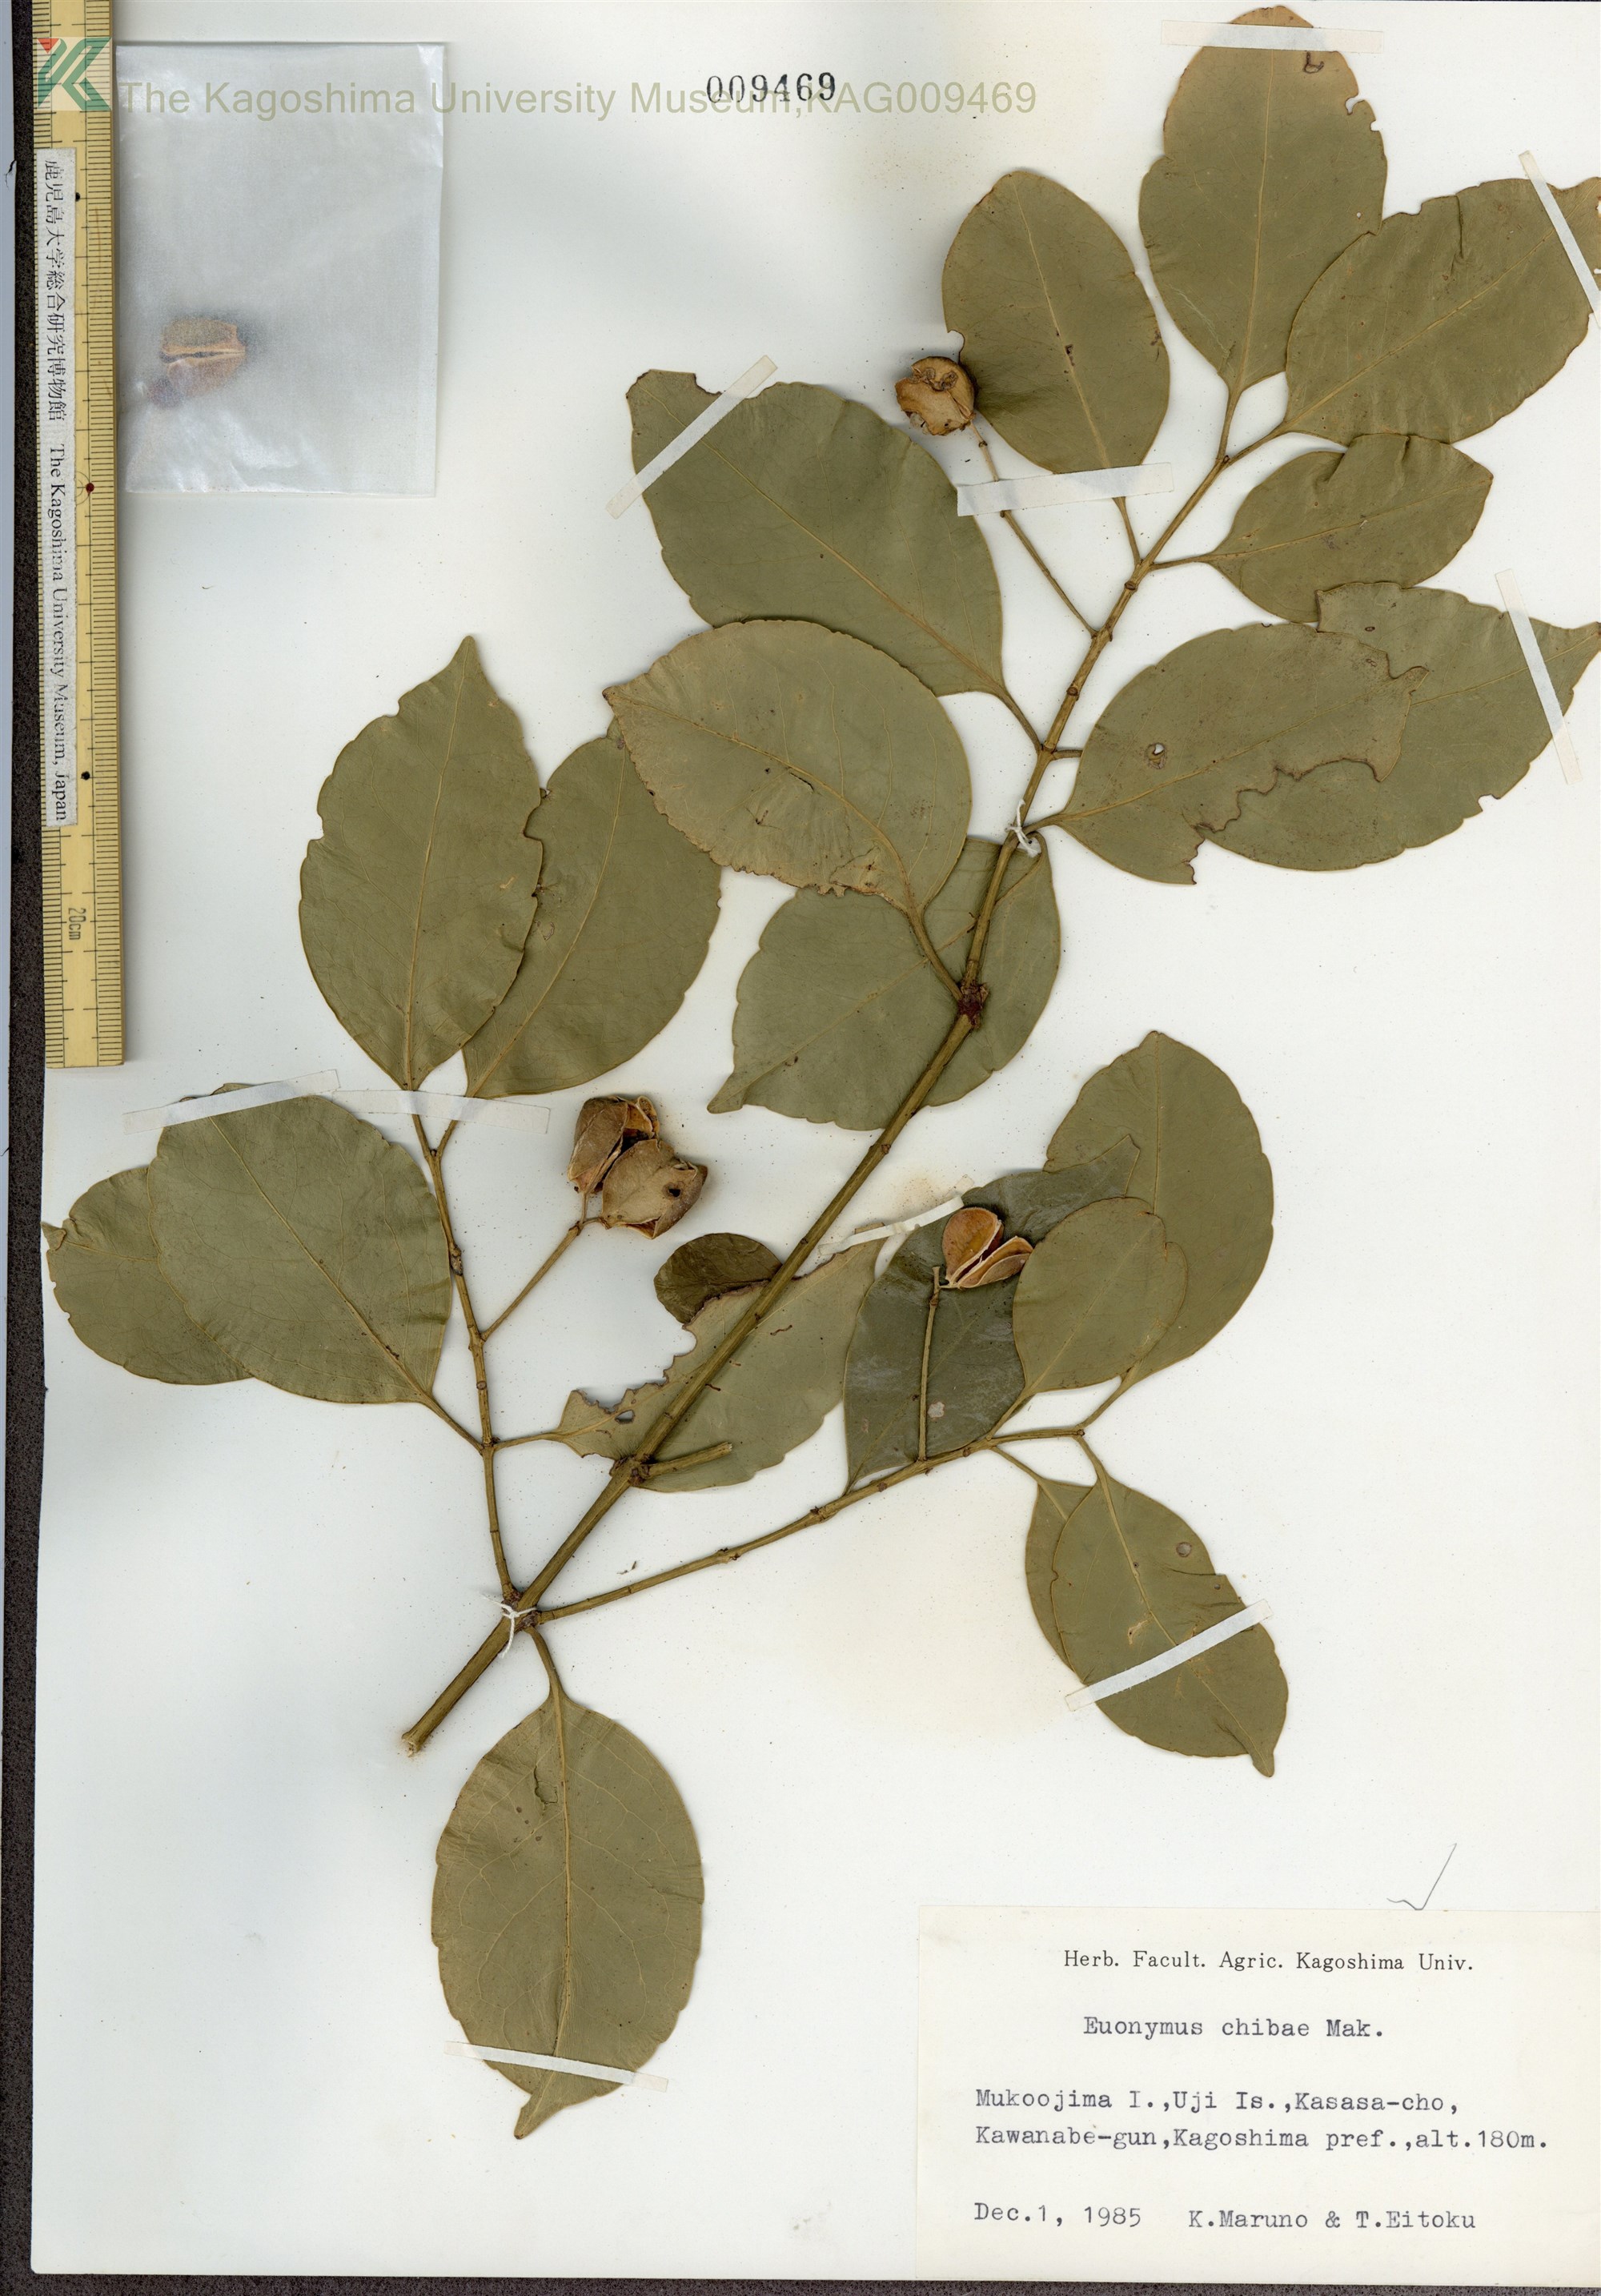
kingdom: Plantae
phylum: Tracheophyta
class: Magnoliopsida
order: Celastrales
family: Celastraceae
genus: Euonymus
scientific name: Euonymus chibae
